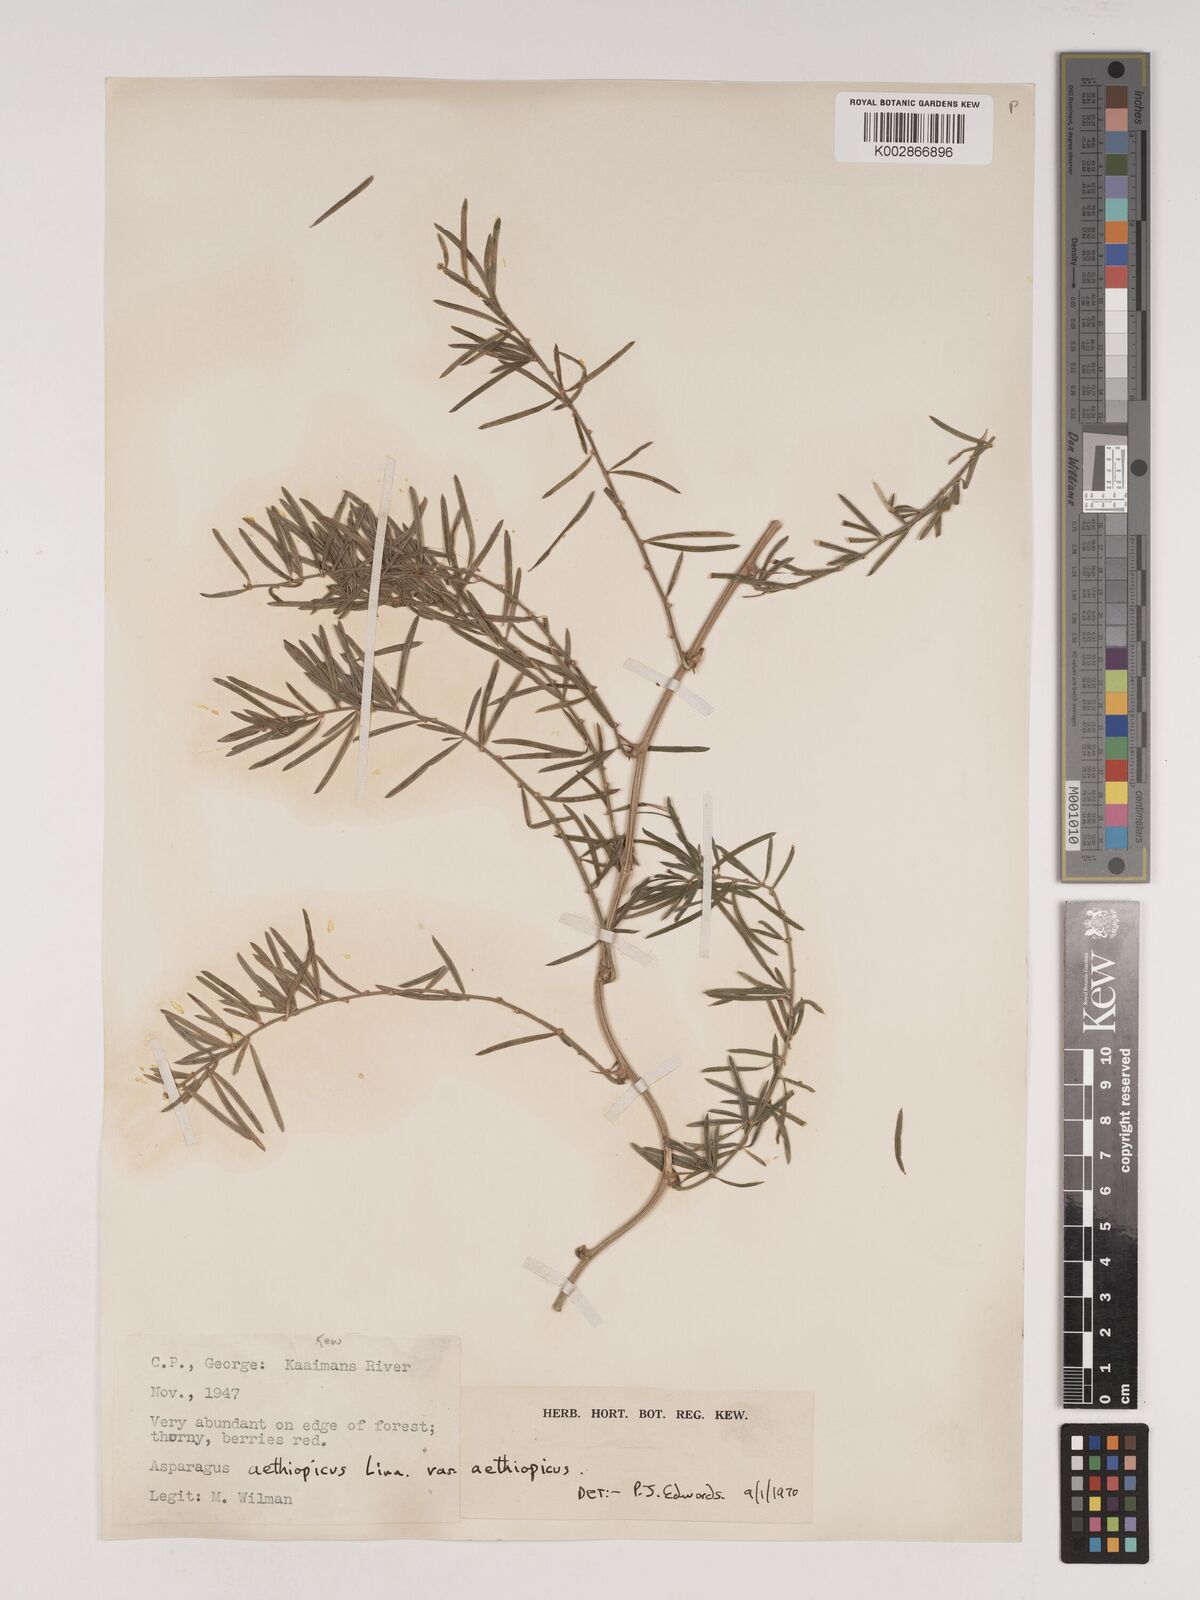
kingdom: Plantae
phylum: Tracheophyta
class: Liliopsida
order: Asparagales
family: Asparagaceae
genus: Asparagus
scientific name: Asparagus aethiopicus
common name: Sprenger's asparagus fern
